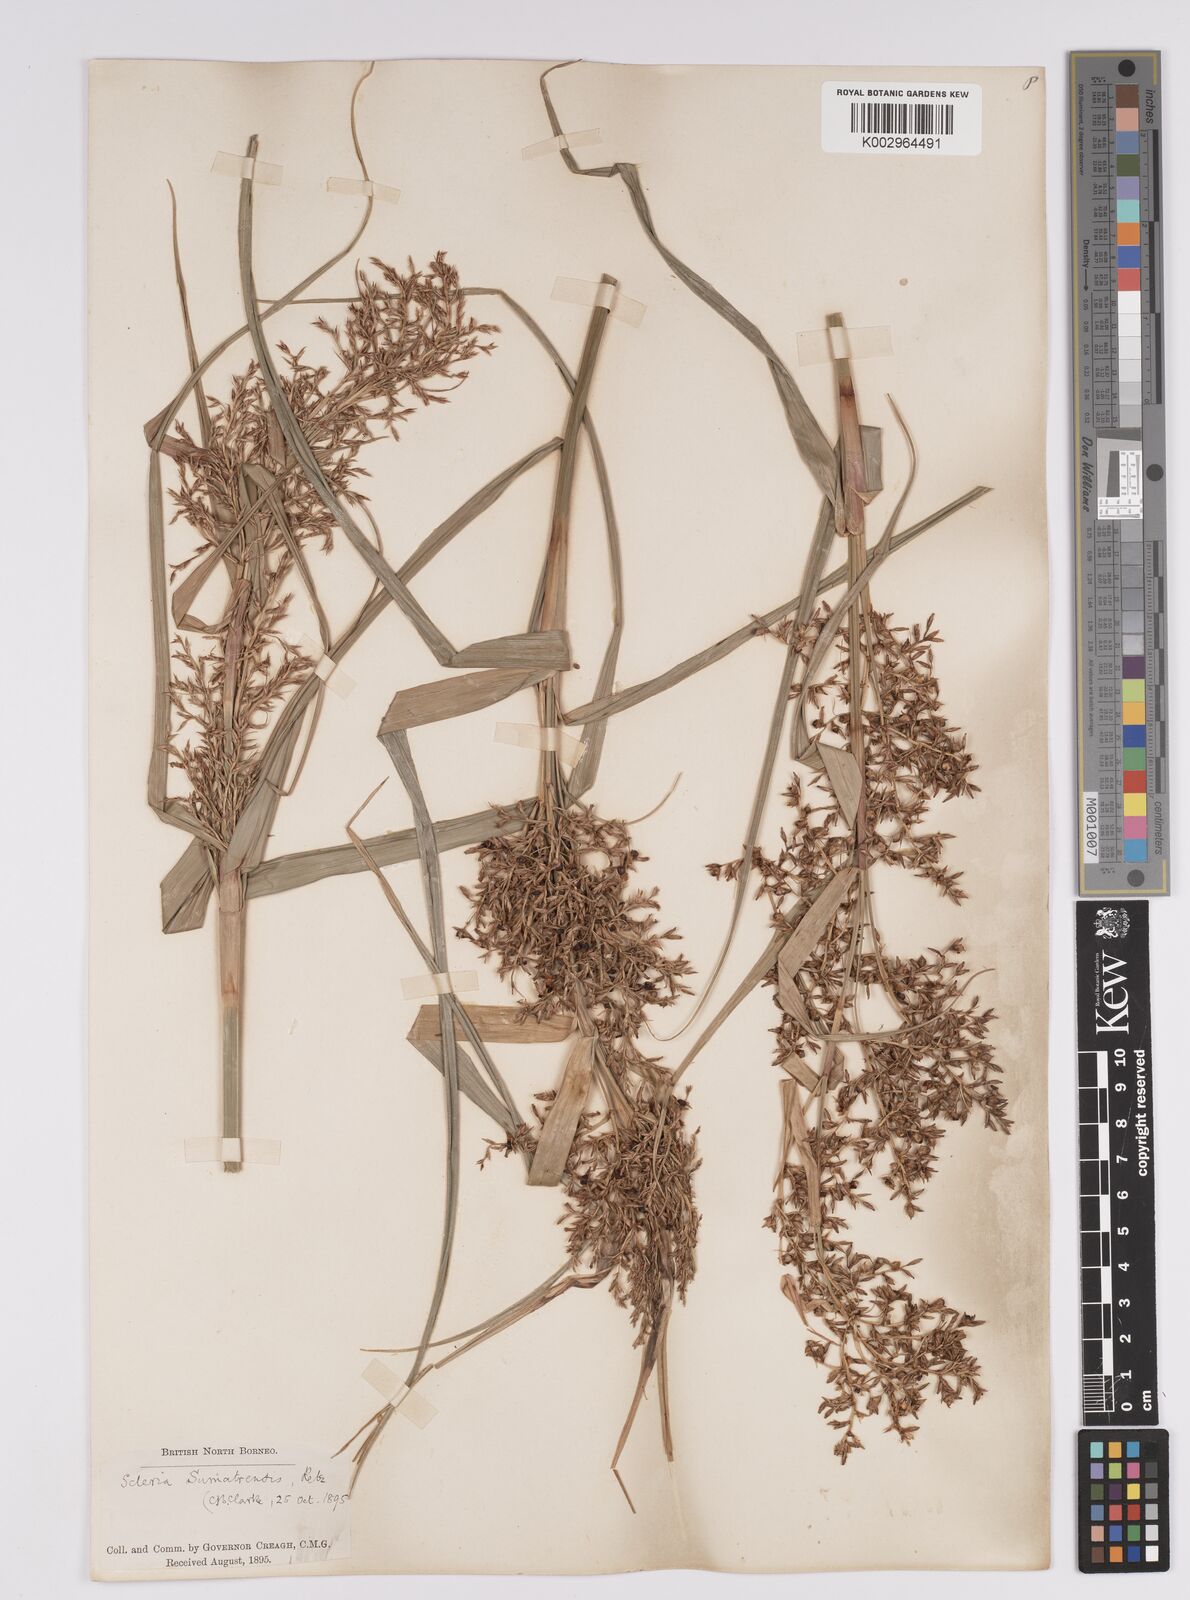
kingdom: Plantae
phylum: Tracheophyta
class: Liliopsida
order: Poales
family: Cyperaceae
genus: Scleria
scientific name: Scleria sumatrensis
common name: Sumatran scleria
